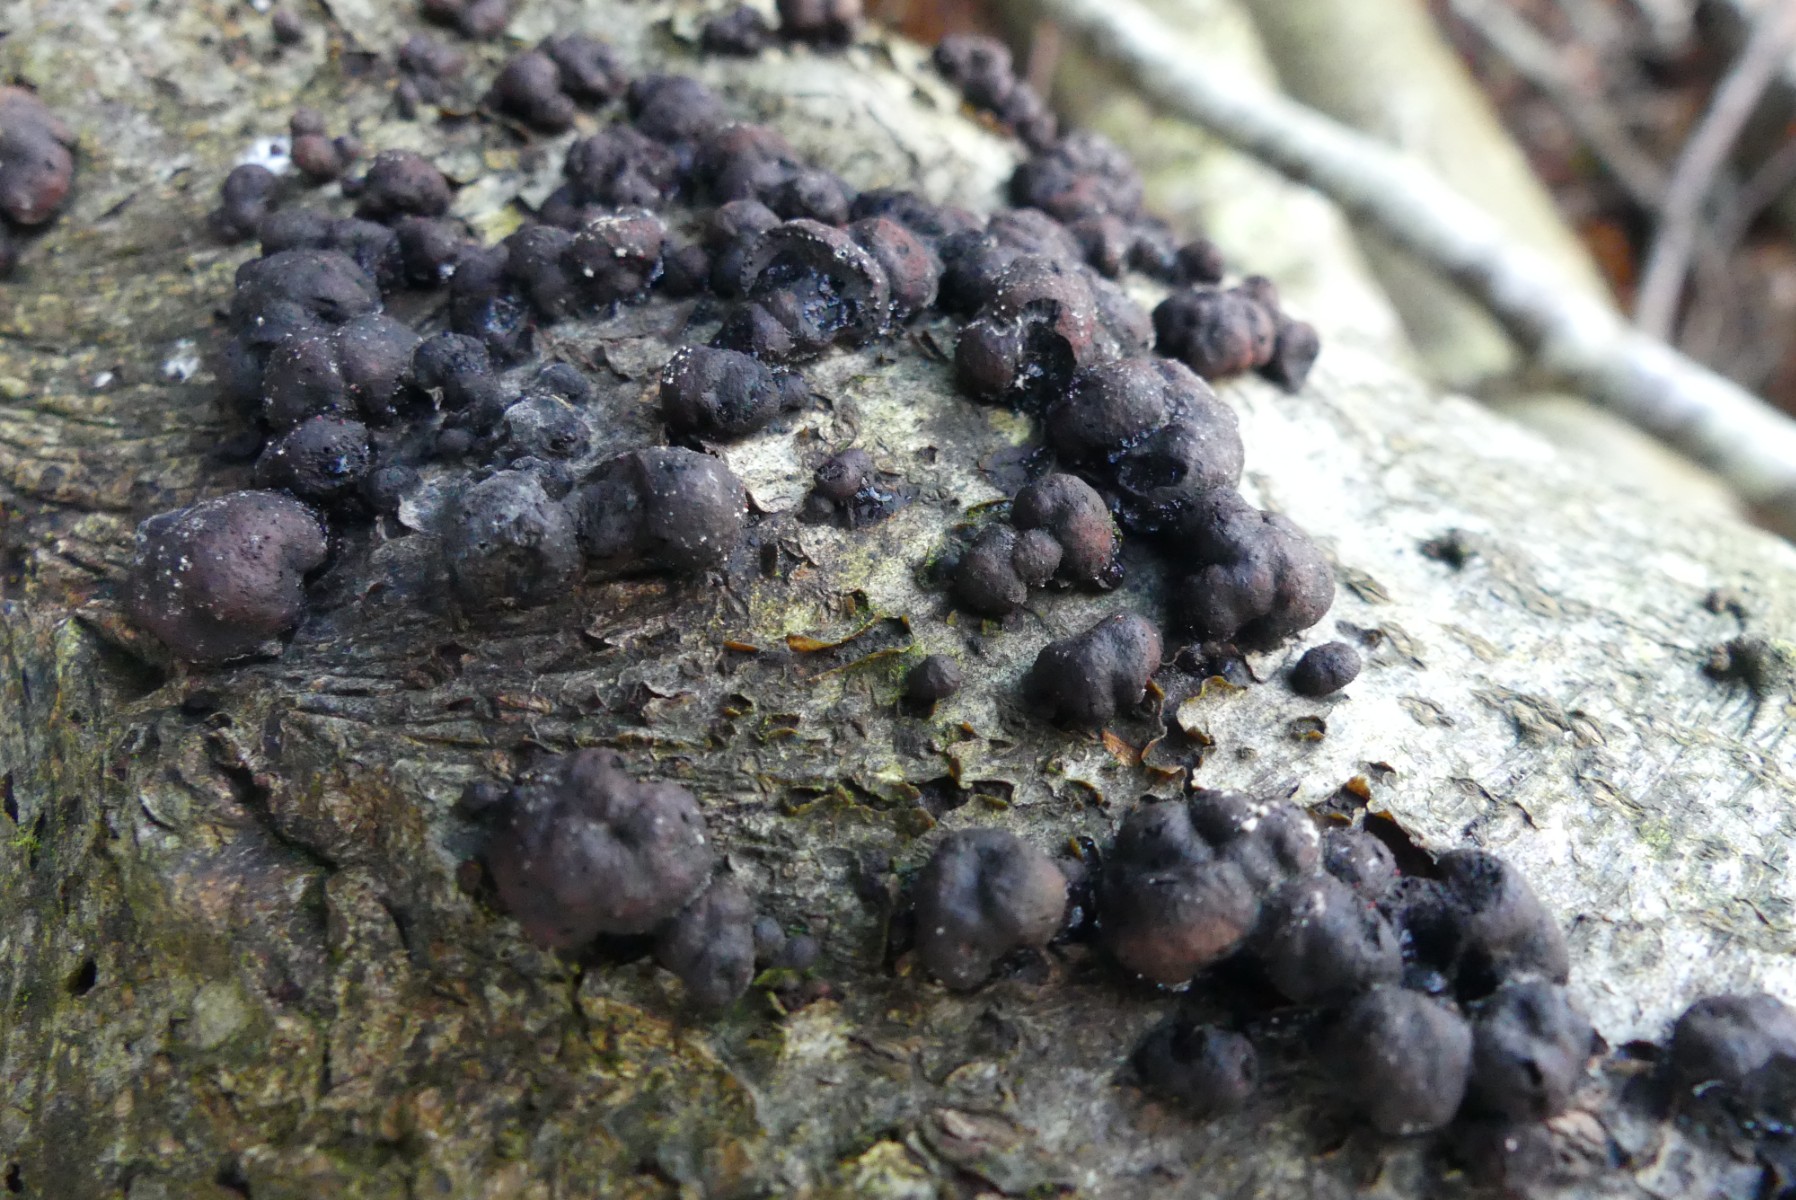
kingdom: Fungi
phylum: Ascomycota
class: Sordariomycetes
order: Xylariales
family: Hypoxylaceae
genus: Hypoxylon
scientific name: Hypoxylon fragiforme
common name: kuljordbær
